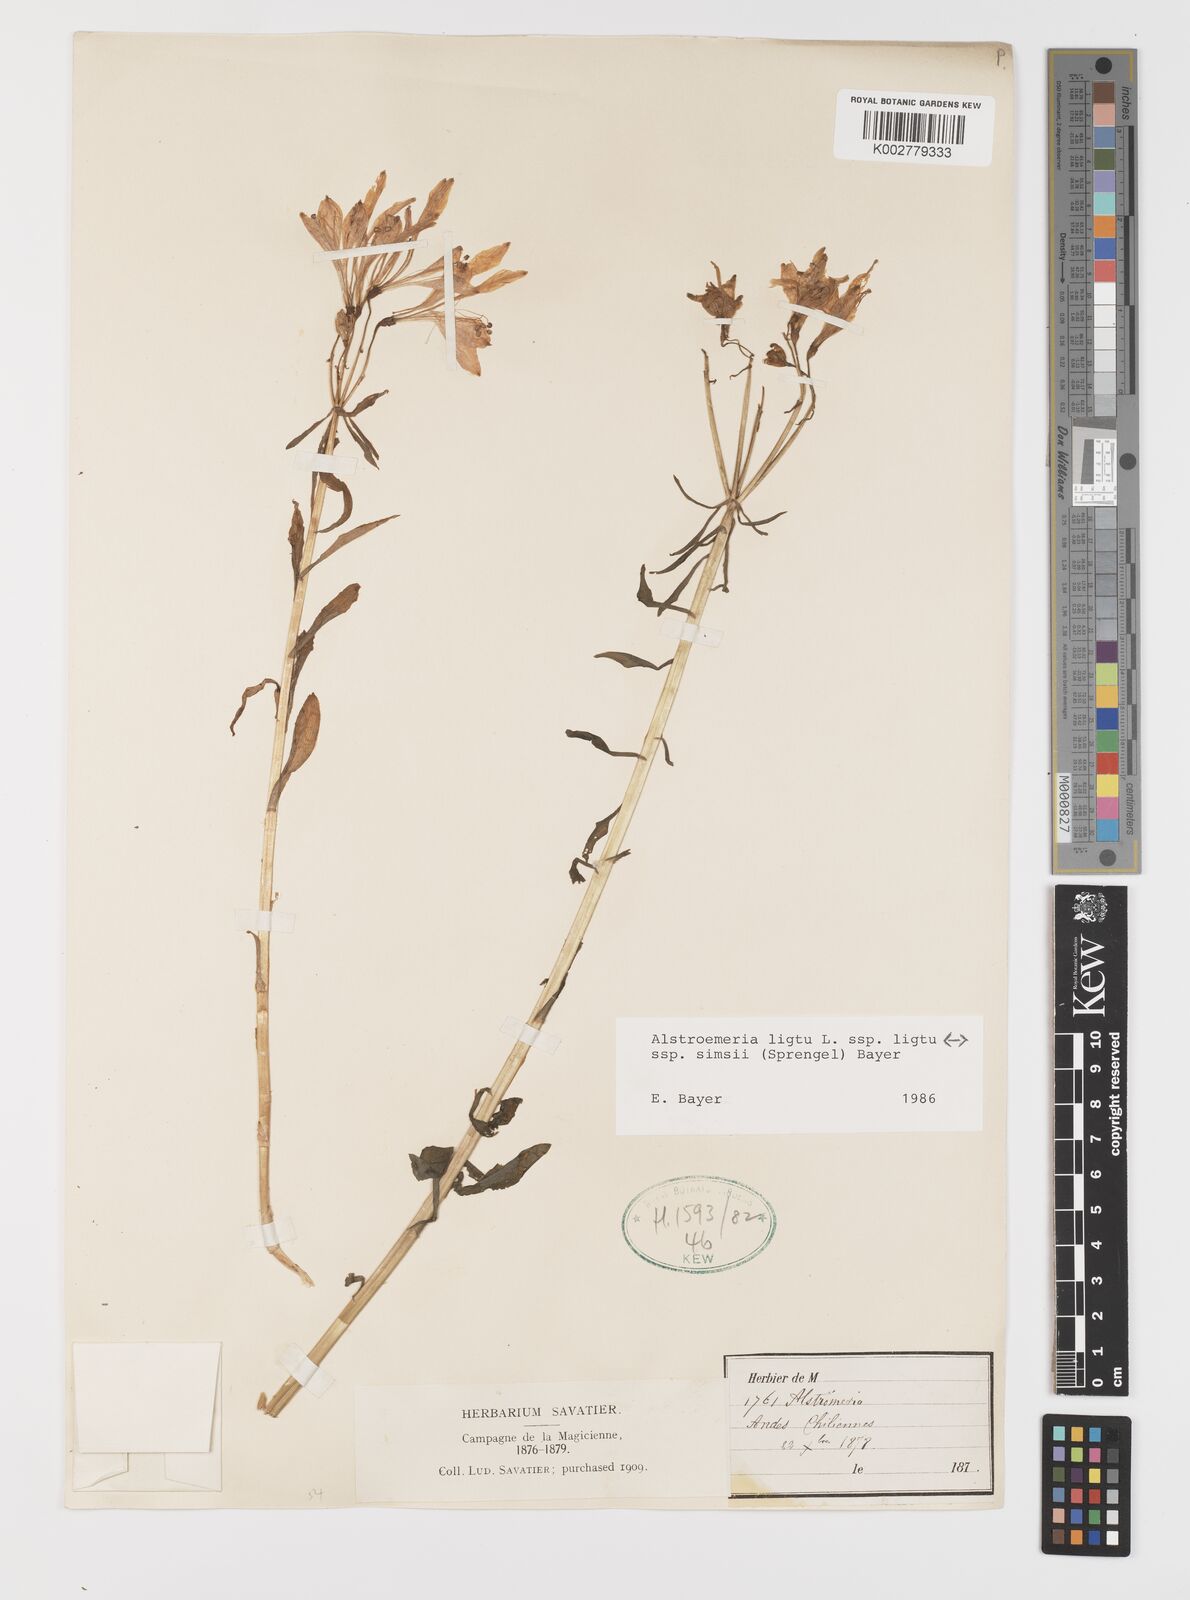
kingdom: Plantae
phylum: Tracheophyta
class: Liliopsida
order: Liliales
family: Alstroemeriaceae
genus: Alstroemeria
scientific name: Alstroemeria ligtu
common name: St. martin's-flower
